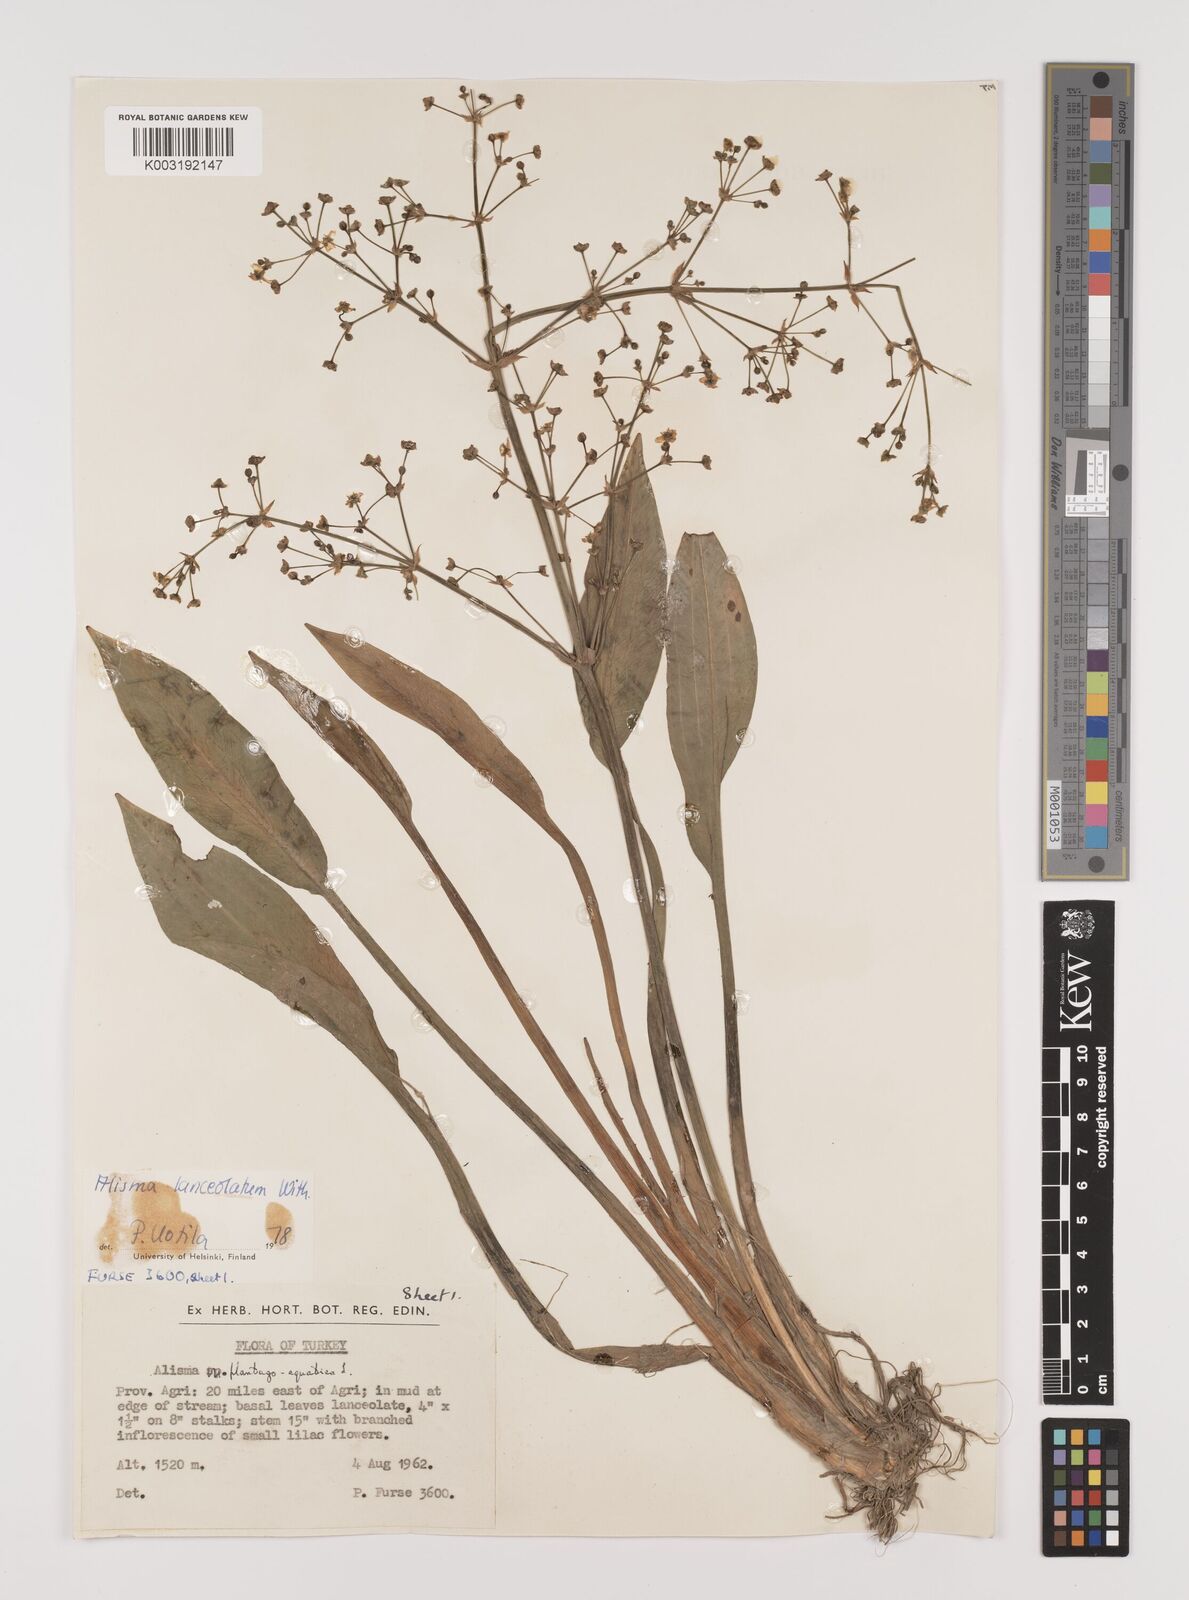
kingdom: Plantae
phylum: Tracheophyta
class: Liliopsida
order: Alismatales
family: Alismataceae
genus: Alisma
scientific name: Alisma lanceolatum
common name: Narrow-leaved water-plantain
